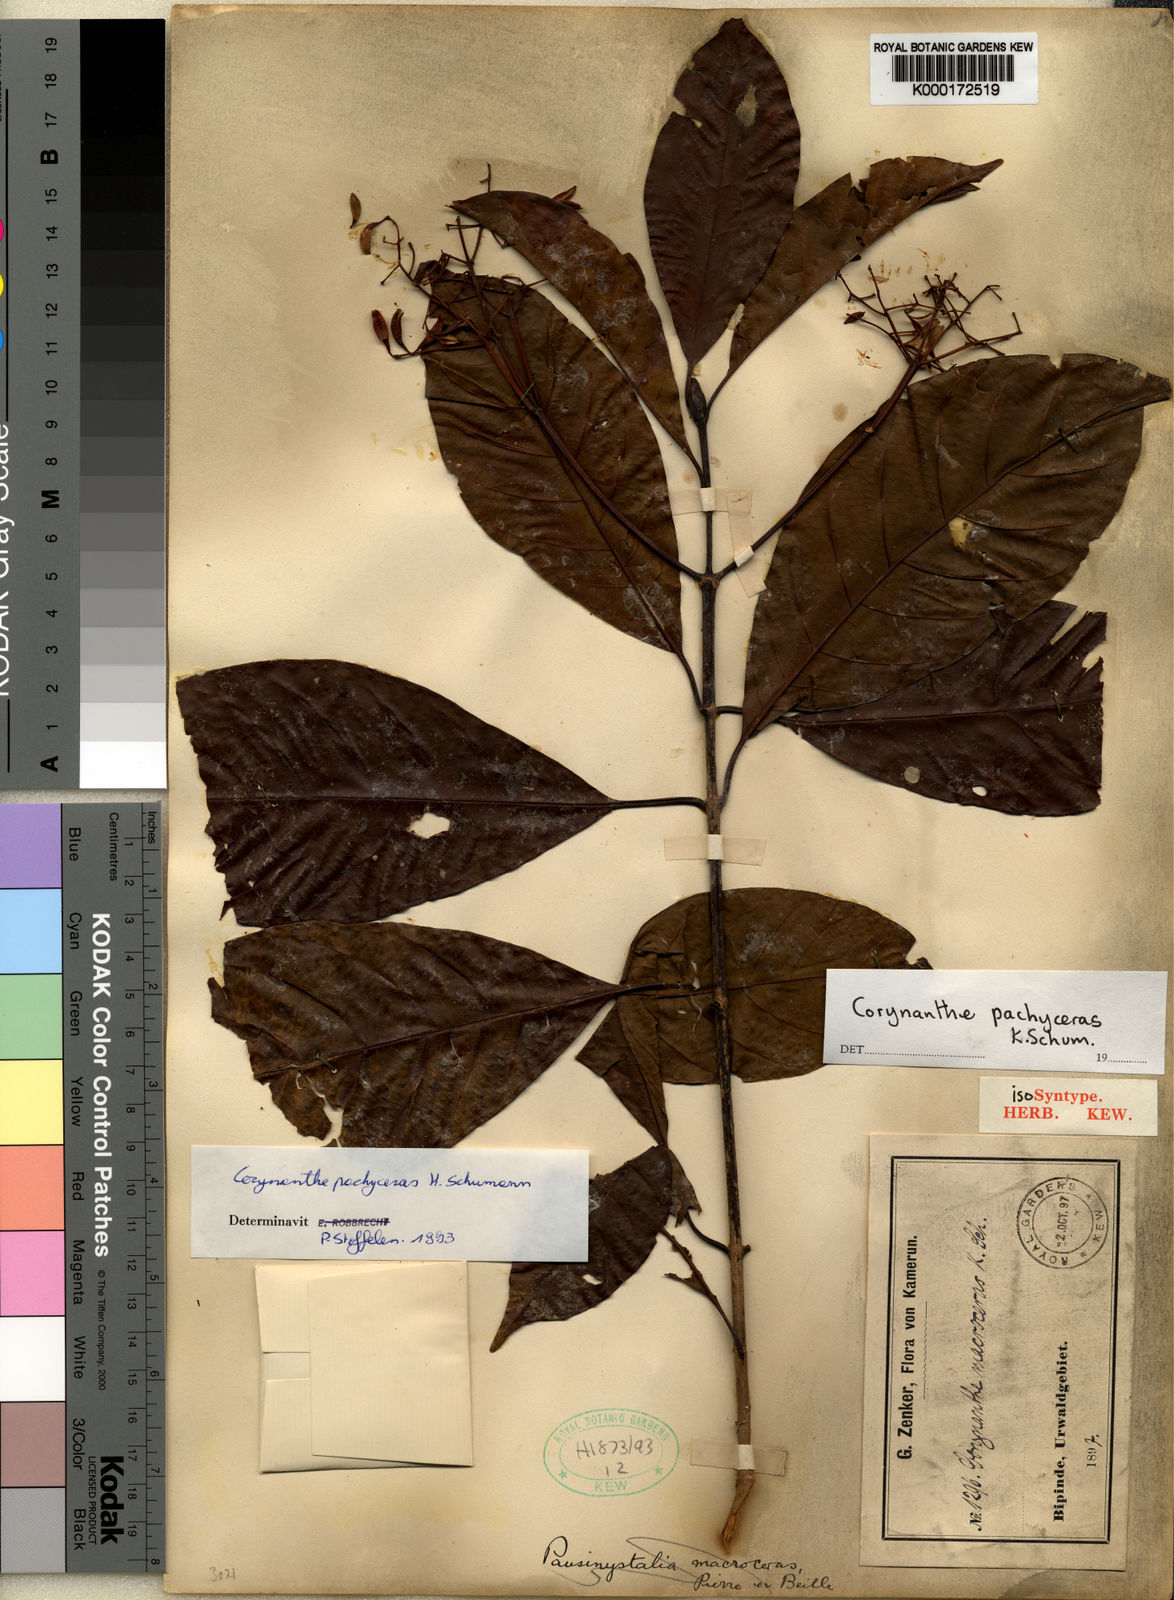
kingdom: Plantae
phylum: Tracheophyta
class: Magnoliopsida
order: Gentianales
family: Rubiaceae
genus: Corynanthe
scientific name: Corynanthe pachyceras
